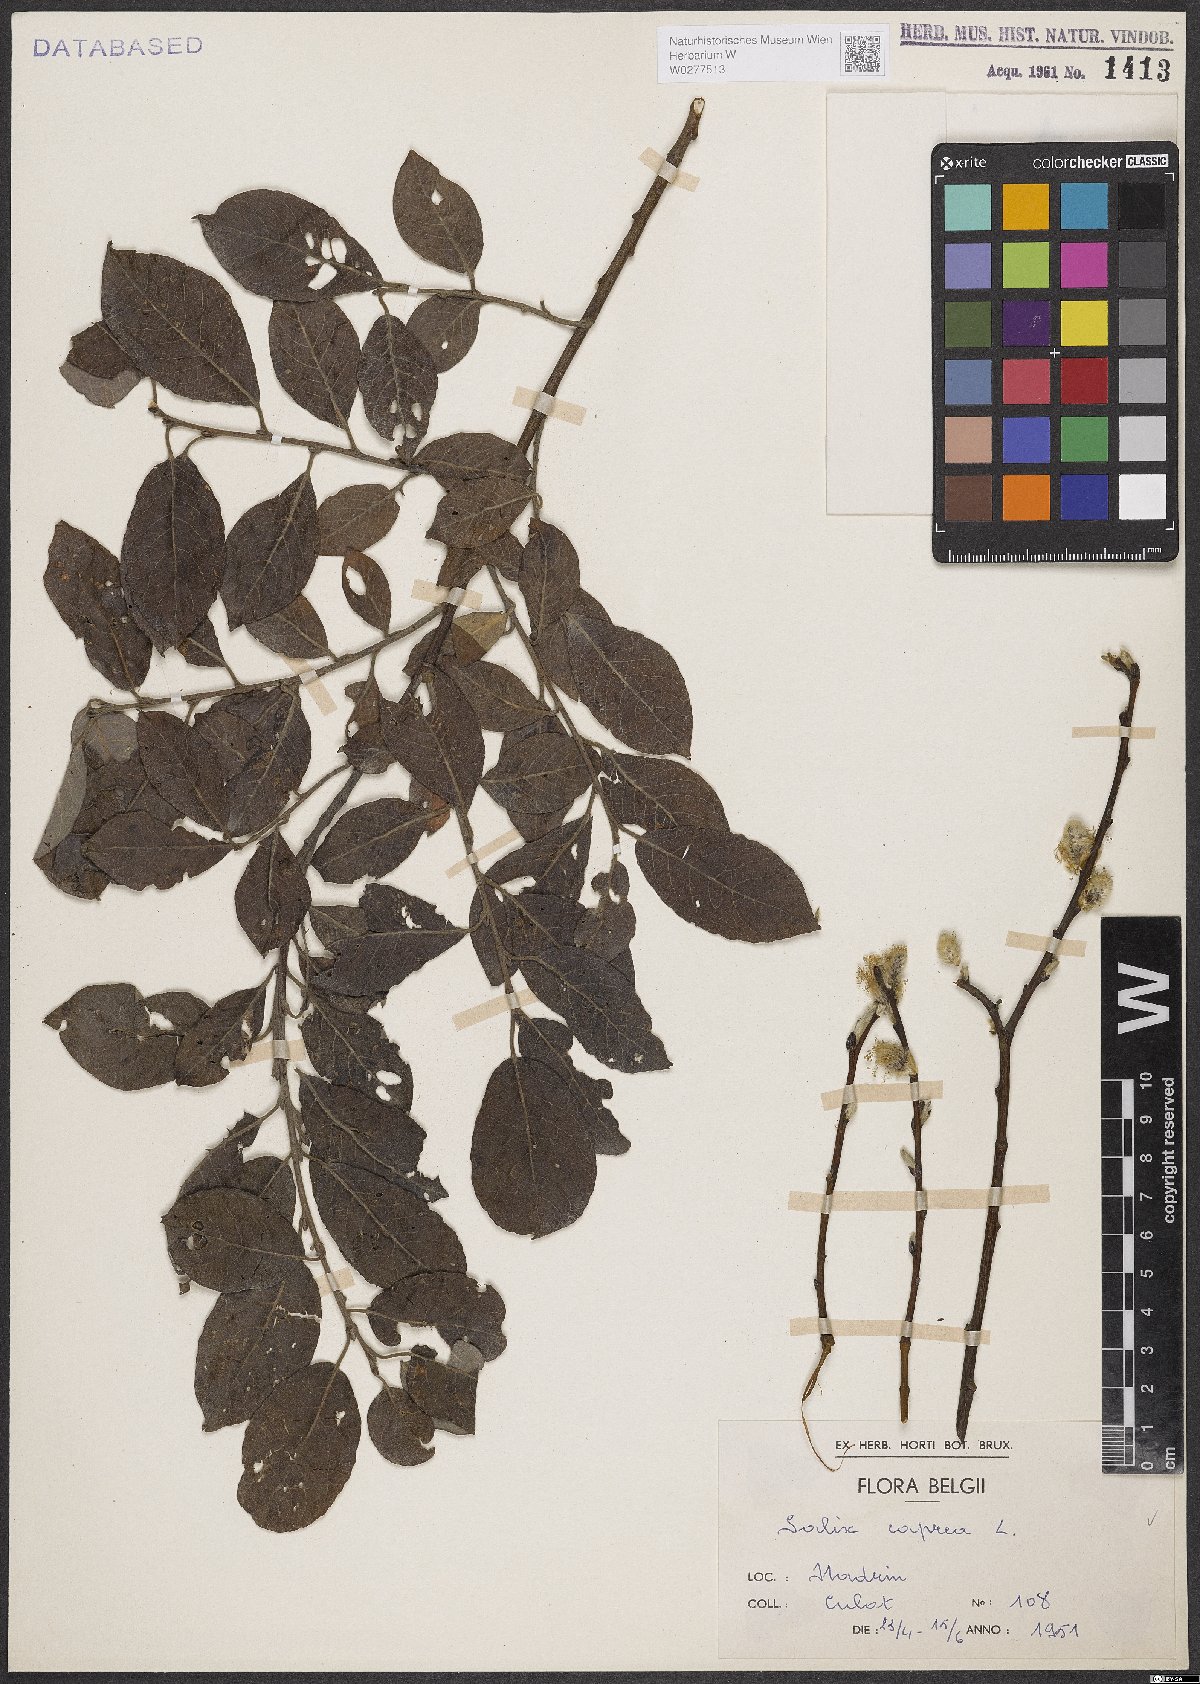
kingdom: Plantae
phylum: Tracheophyta
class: Magnoliopsida
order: Malpighiales
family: Salicaceae
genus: Salix
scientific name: Salix caprea
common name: Goat willow
